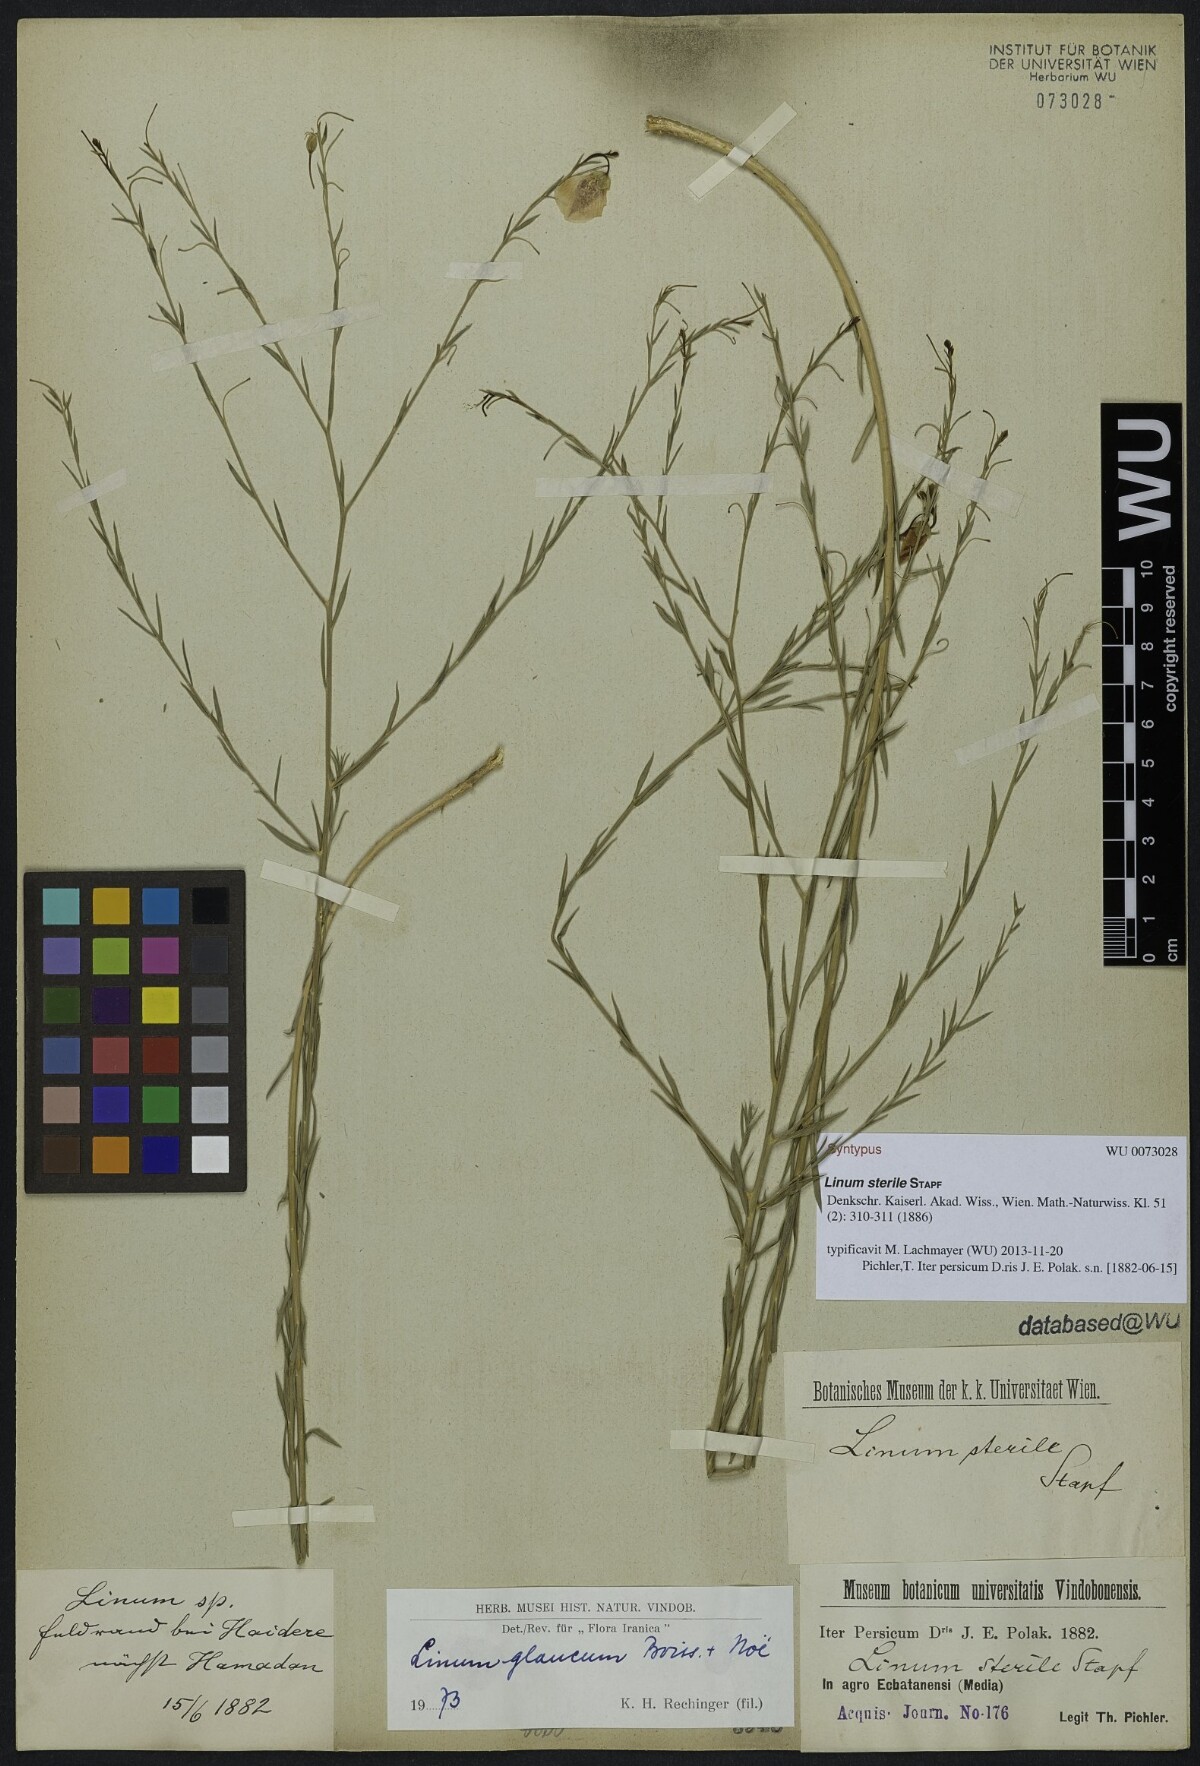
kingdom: Plantae
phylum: Tracheophyta
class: Magnoliopsida
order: Malpighiales
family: Linaceae
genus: Linum
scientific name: Linum glaucum
